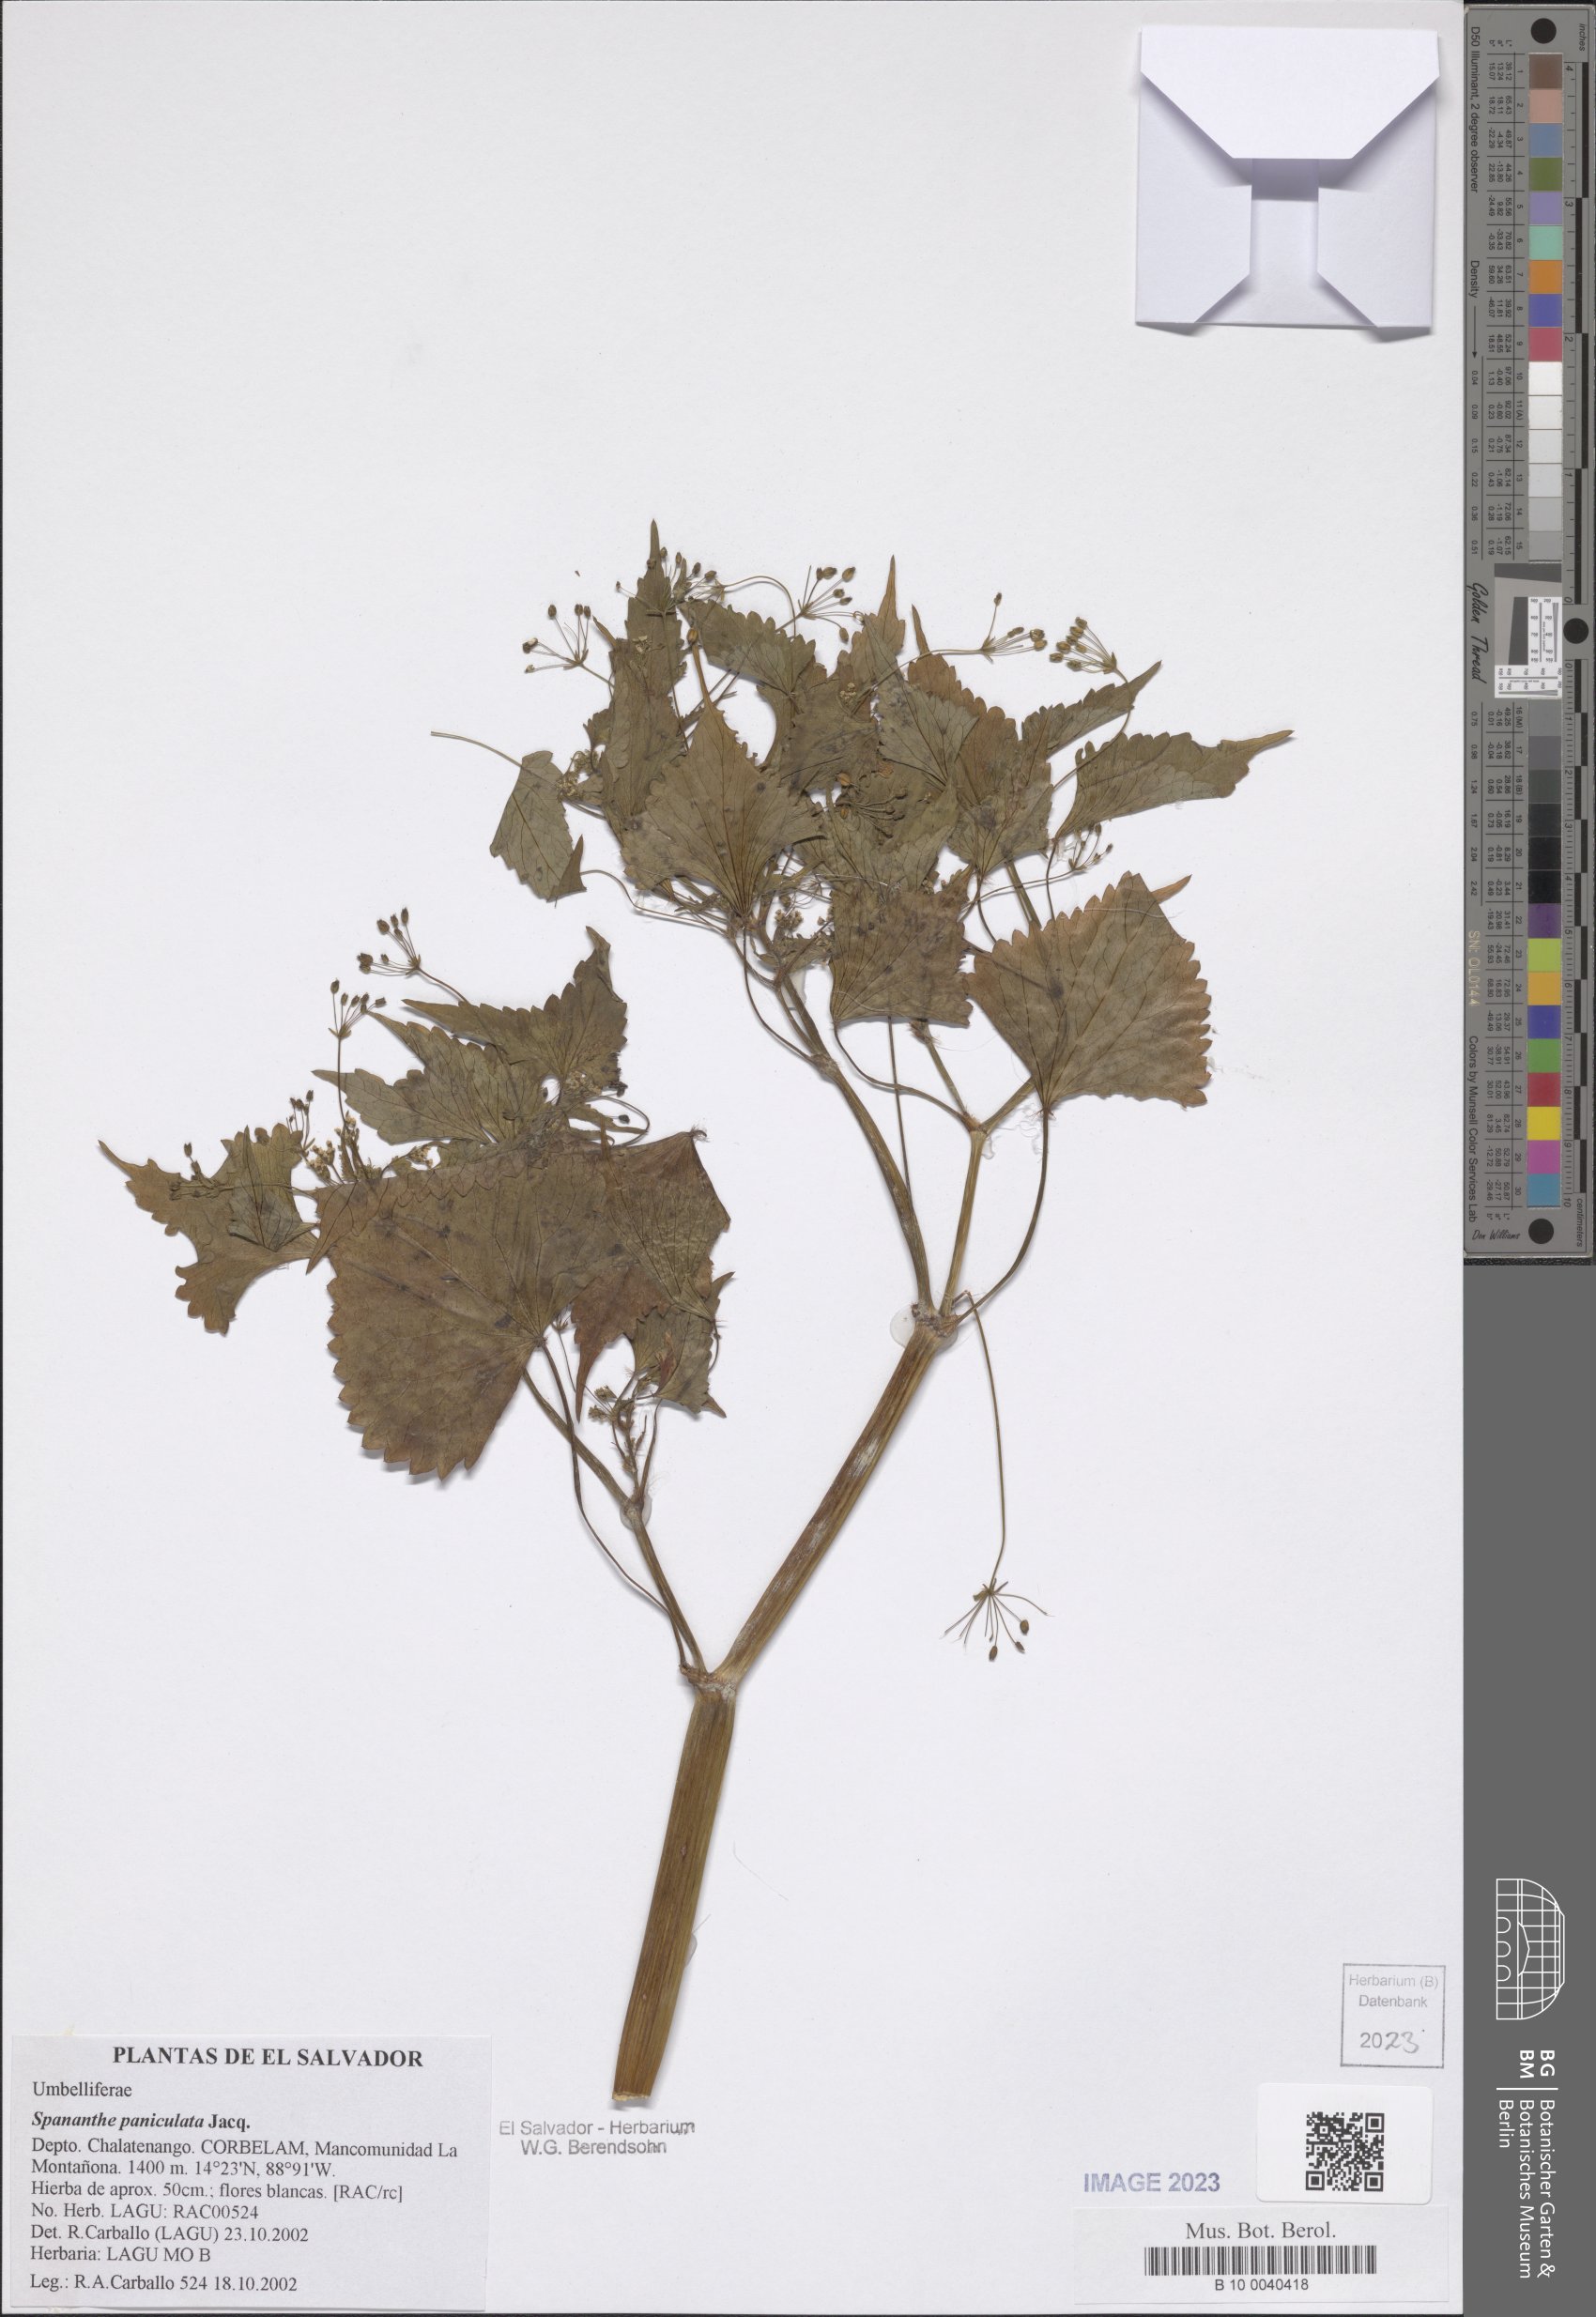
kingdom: Plantae
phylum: Tracheophyta
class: Magnoliopsida
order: Apiales
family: Apiaceae
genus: Spananthe
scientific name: Spananthe paniculata
